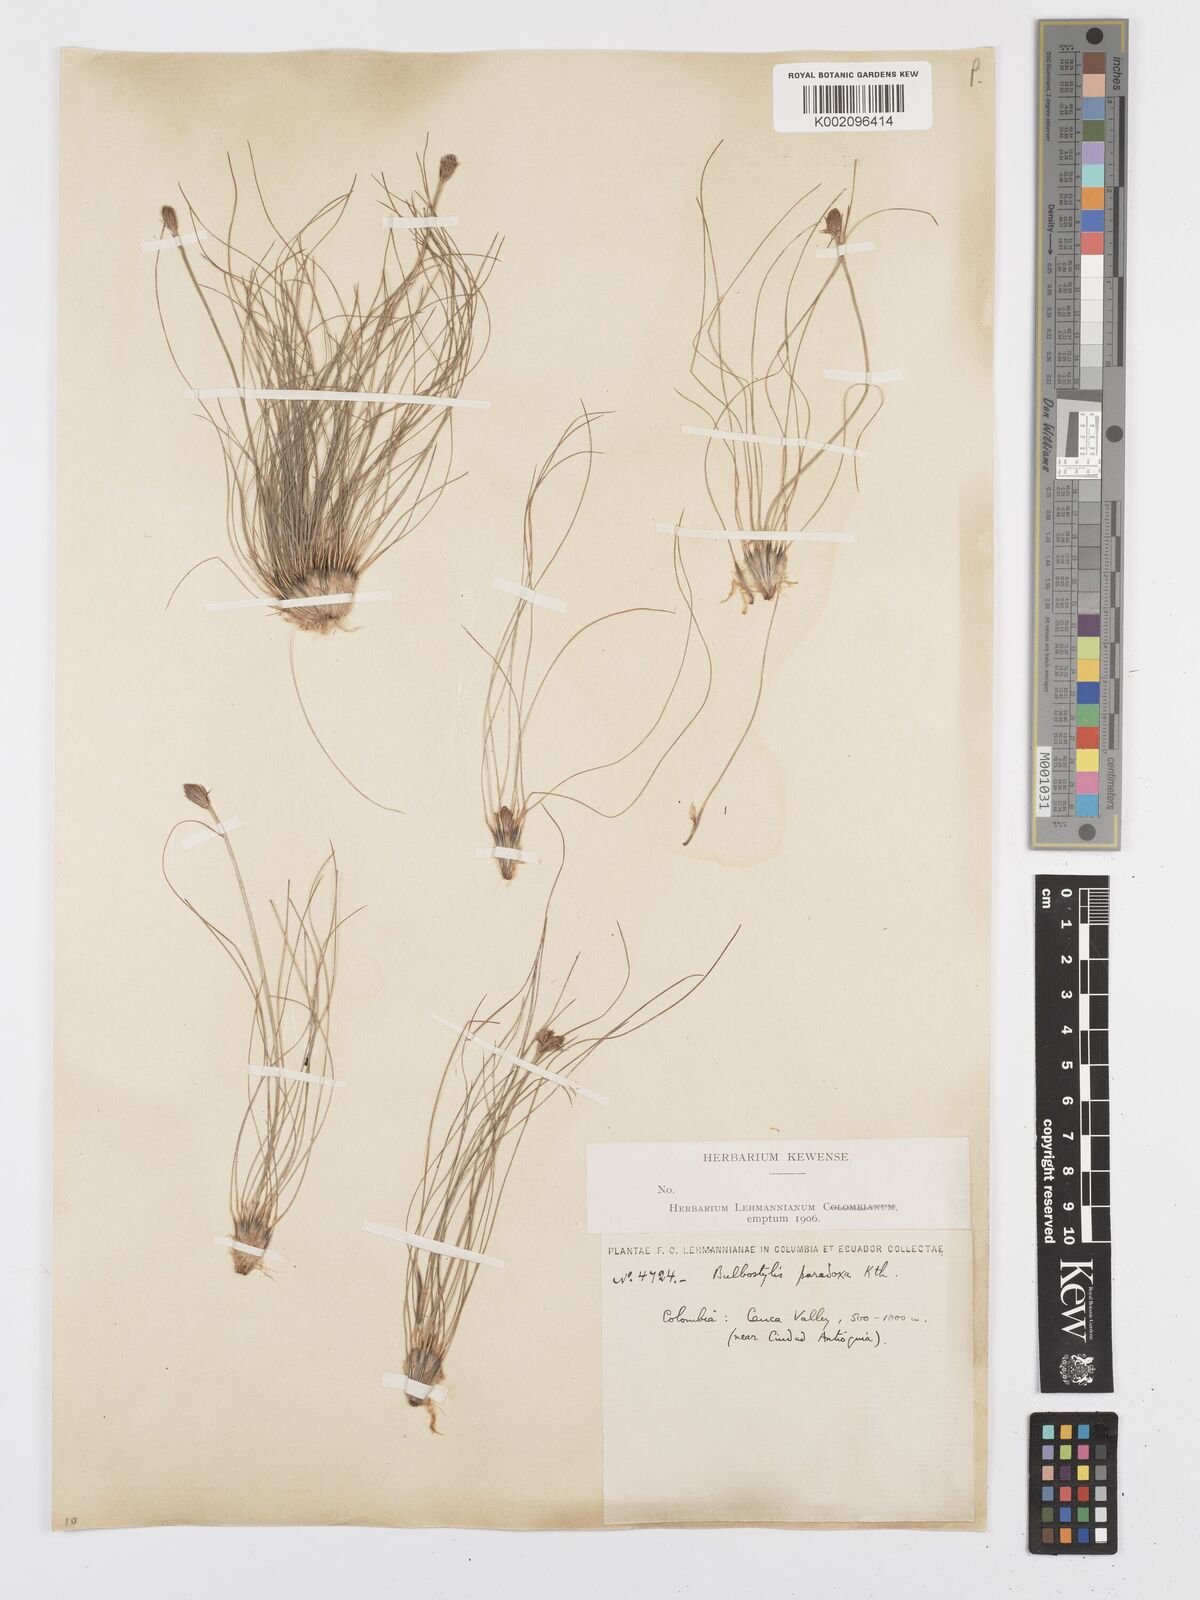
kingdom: Plantae
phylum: Tracheophyta
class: Liliopsida
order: Poales
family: Cyperaceae
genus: Bulbostylis
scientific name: Bulbostylis
